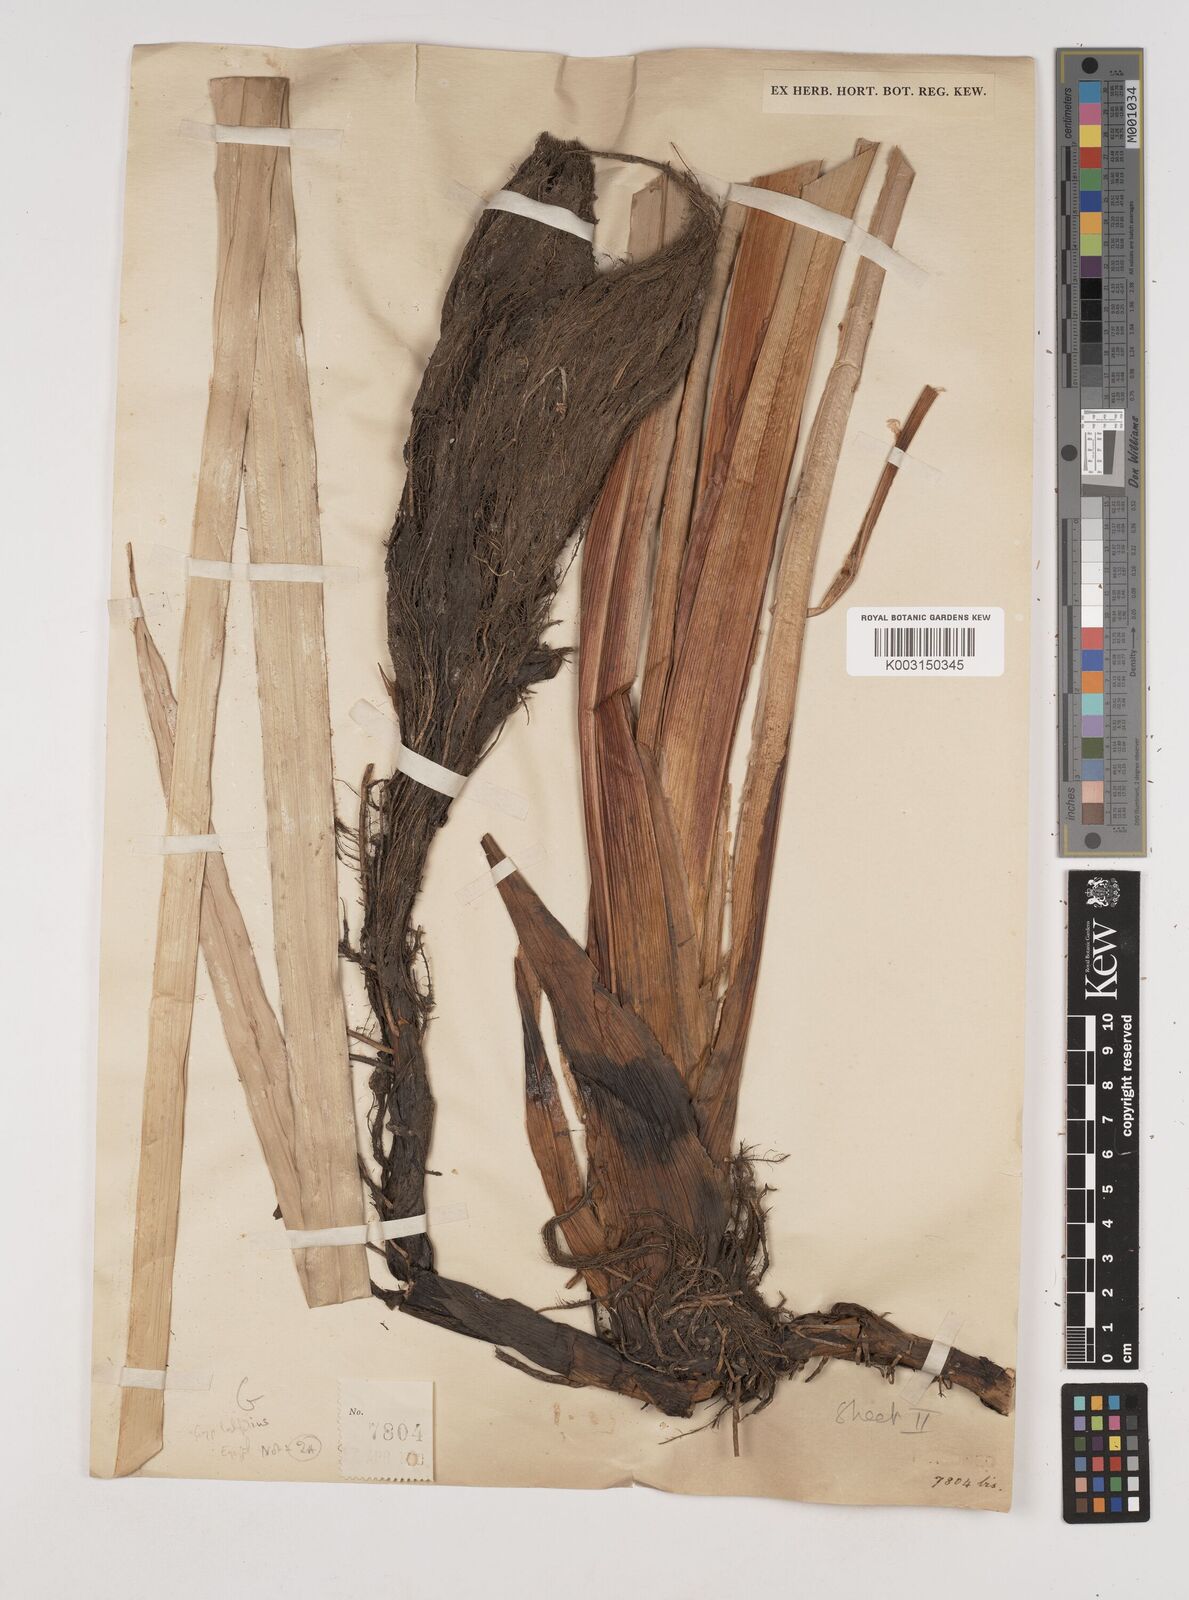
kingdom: Plantae
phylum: Tracheophyta
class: Liliopsida
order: Poales
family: Cyperaceae
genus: Cyperus
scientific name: Cyperus latifolius
